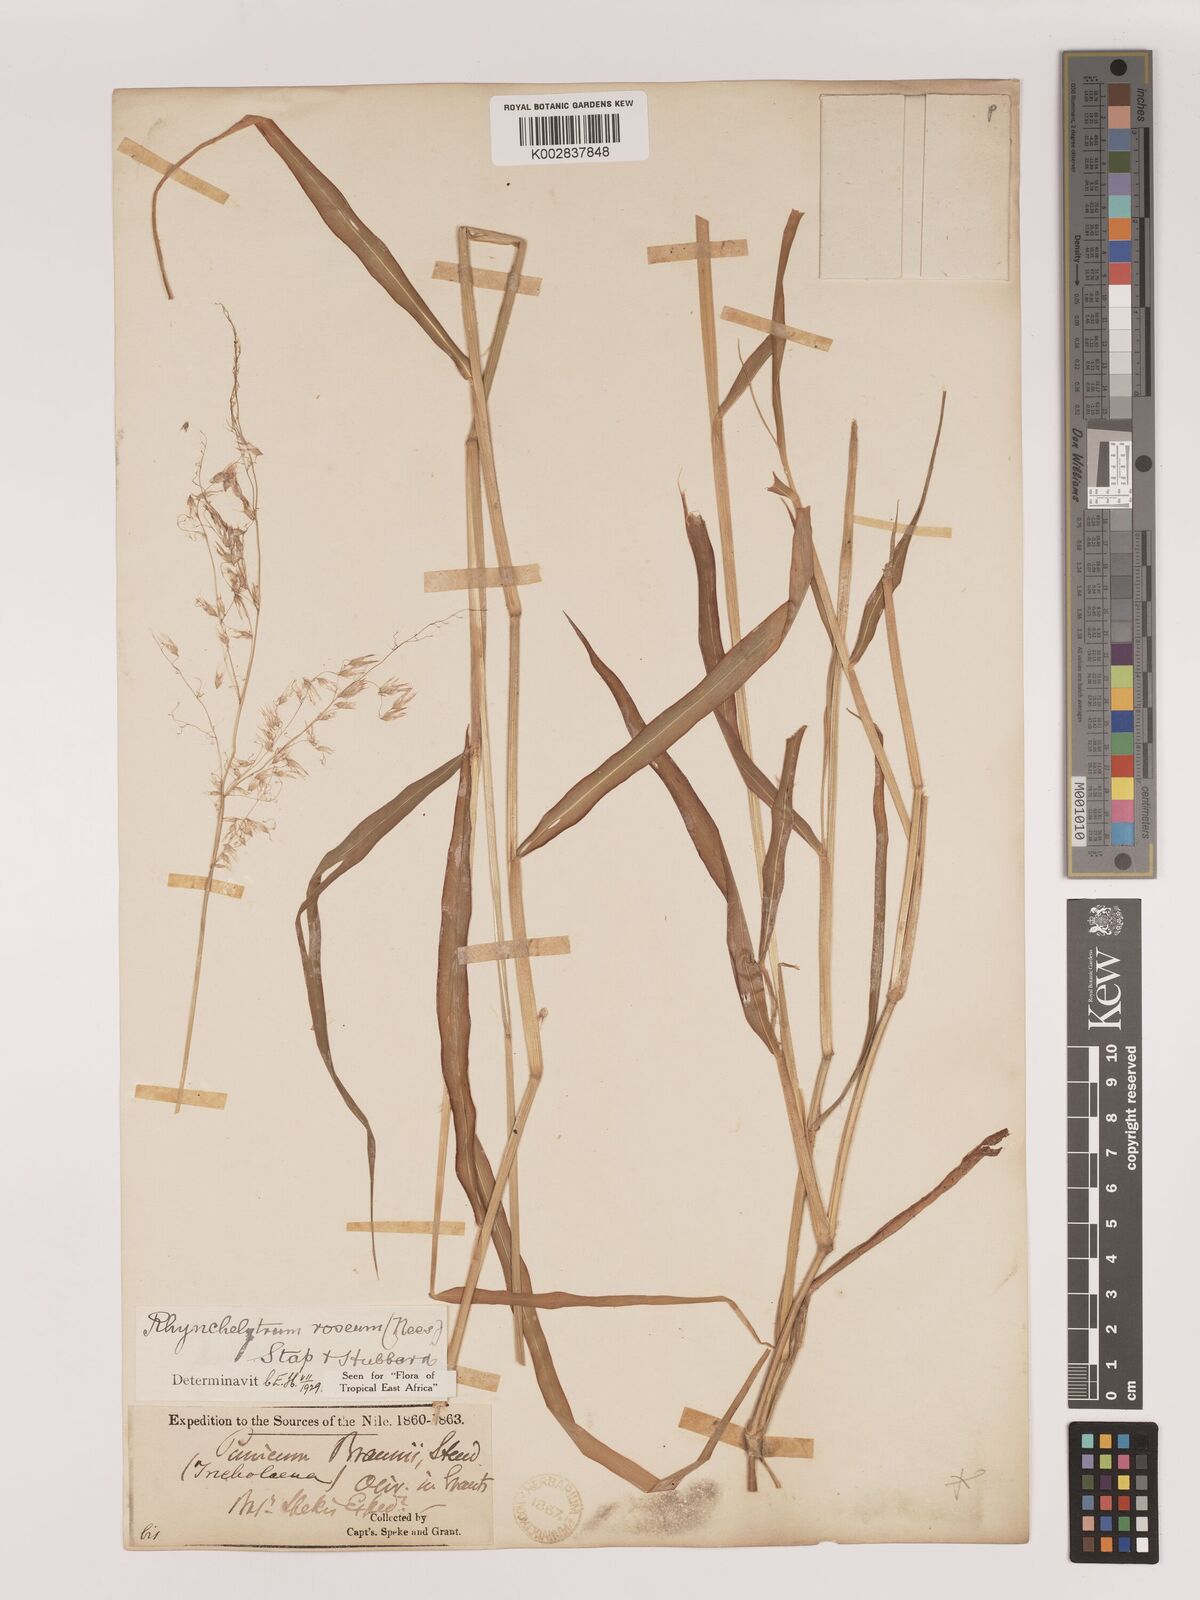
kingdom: Plantae
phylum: Tracheophyta
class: Liliopsida
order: Poales
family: Poaceae
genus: Melinis
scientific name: Melinis repens
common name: Rose natal grass
